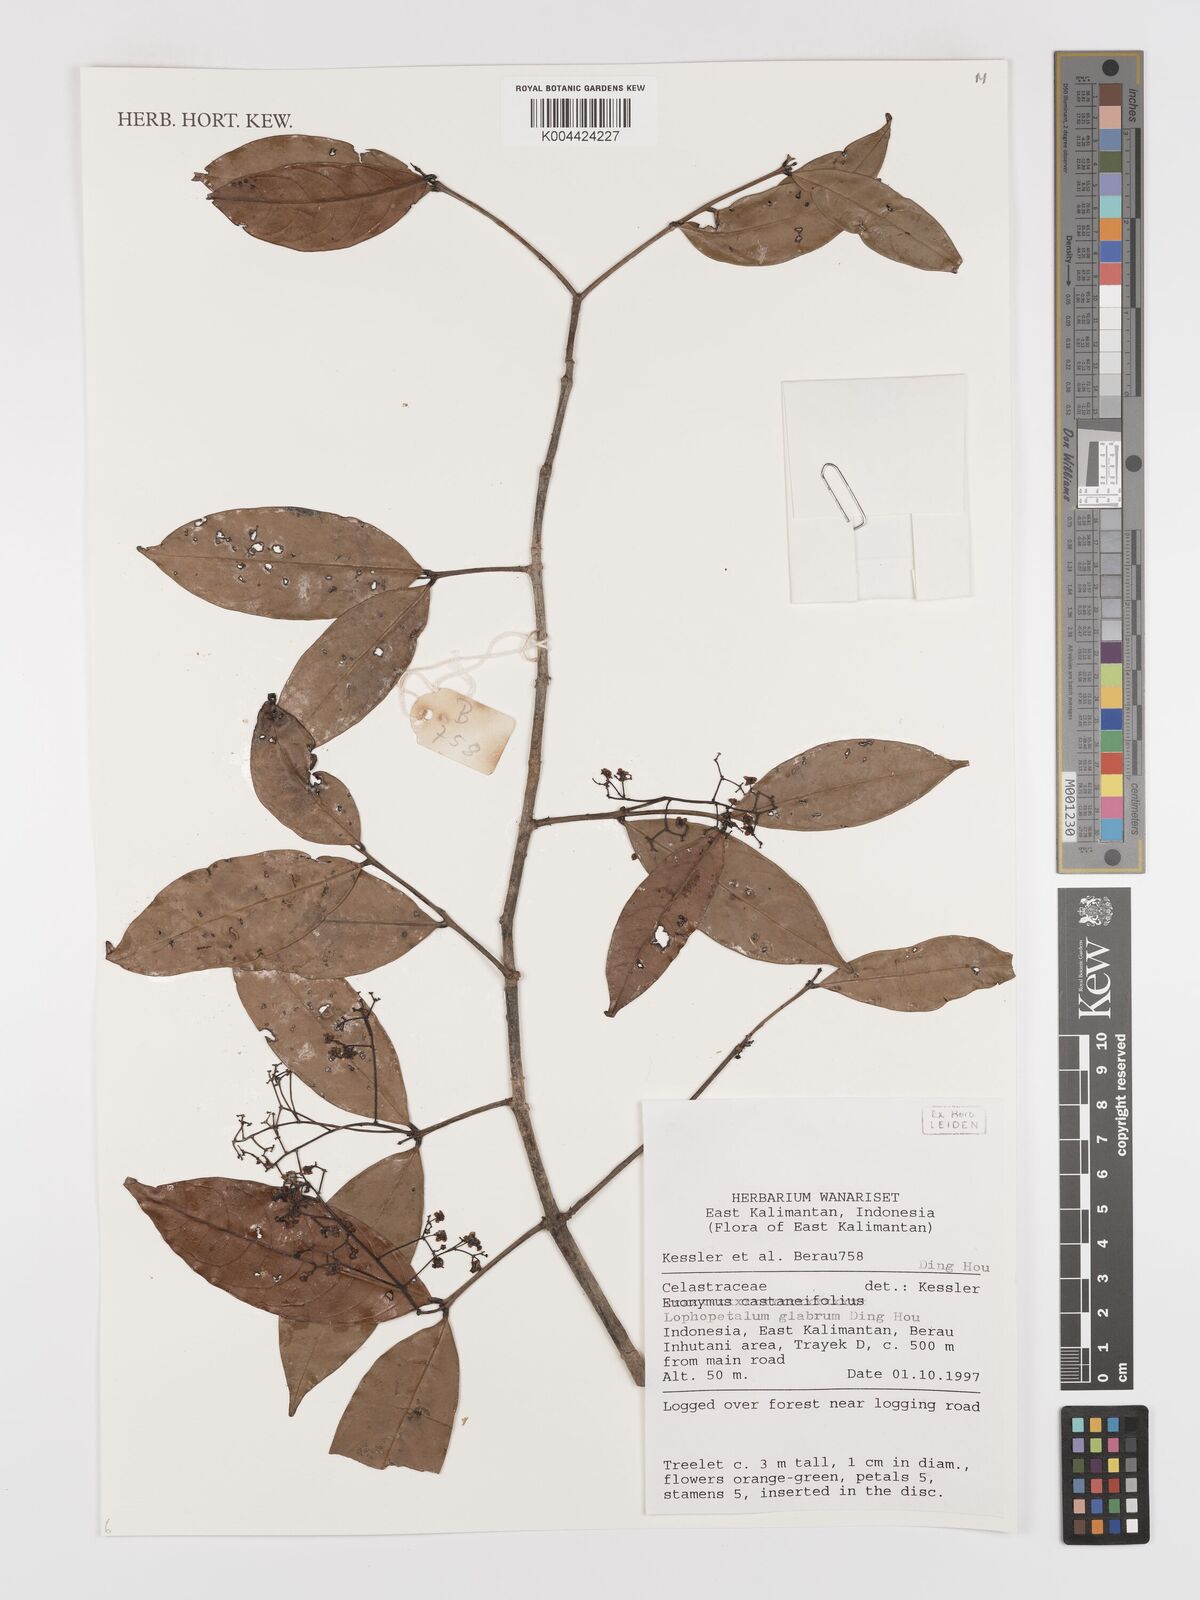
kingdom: Plantae
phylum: Tracheophyta
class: Magnoliopsida
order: Celastrales
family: Celastraceae
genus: Lophopetalum
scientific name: Lophopetalum glabrum
